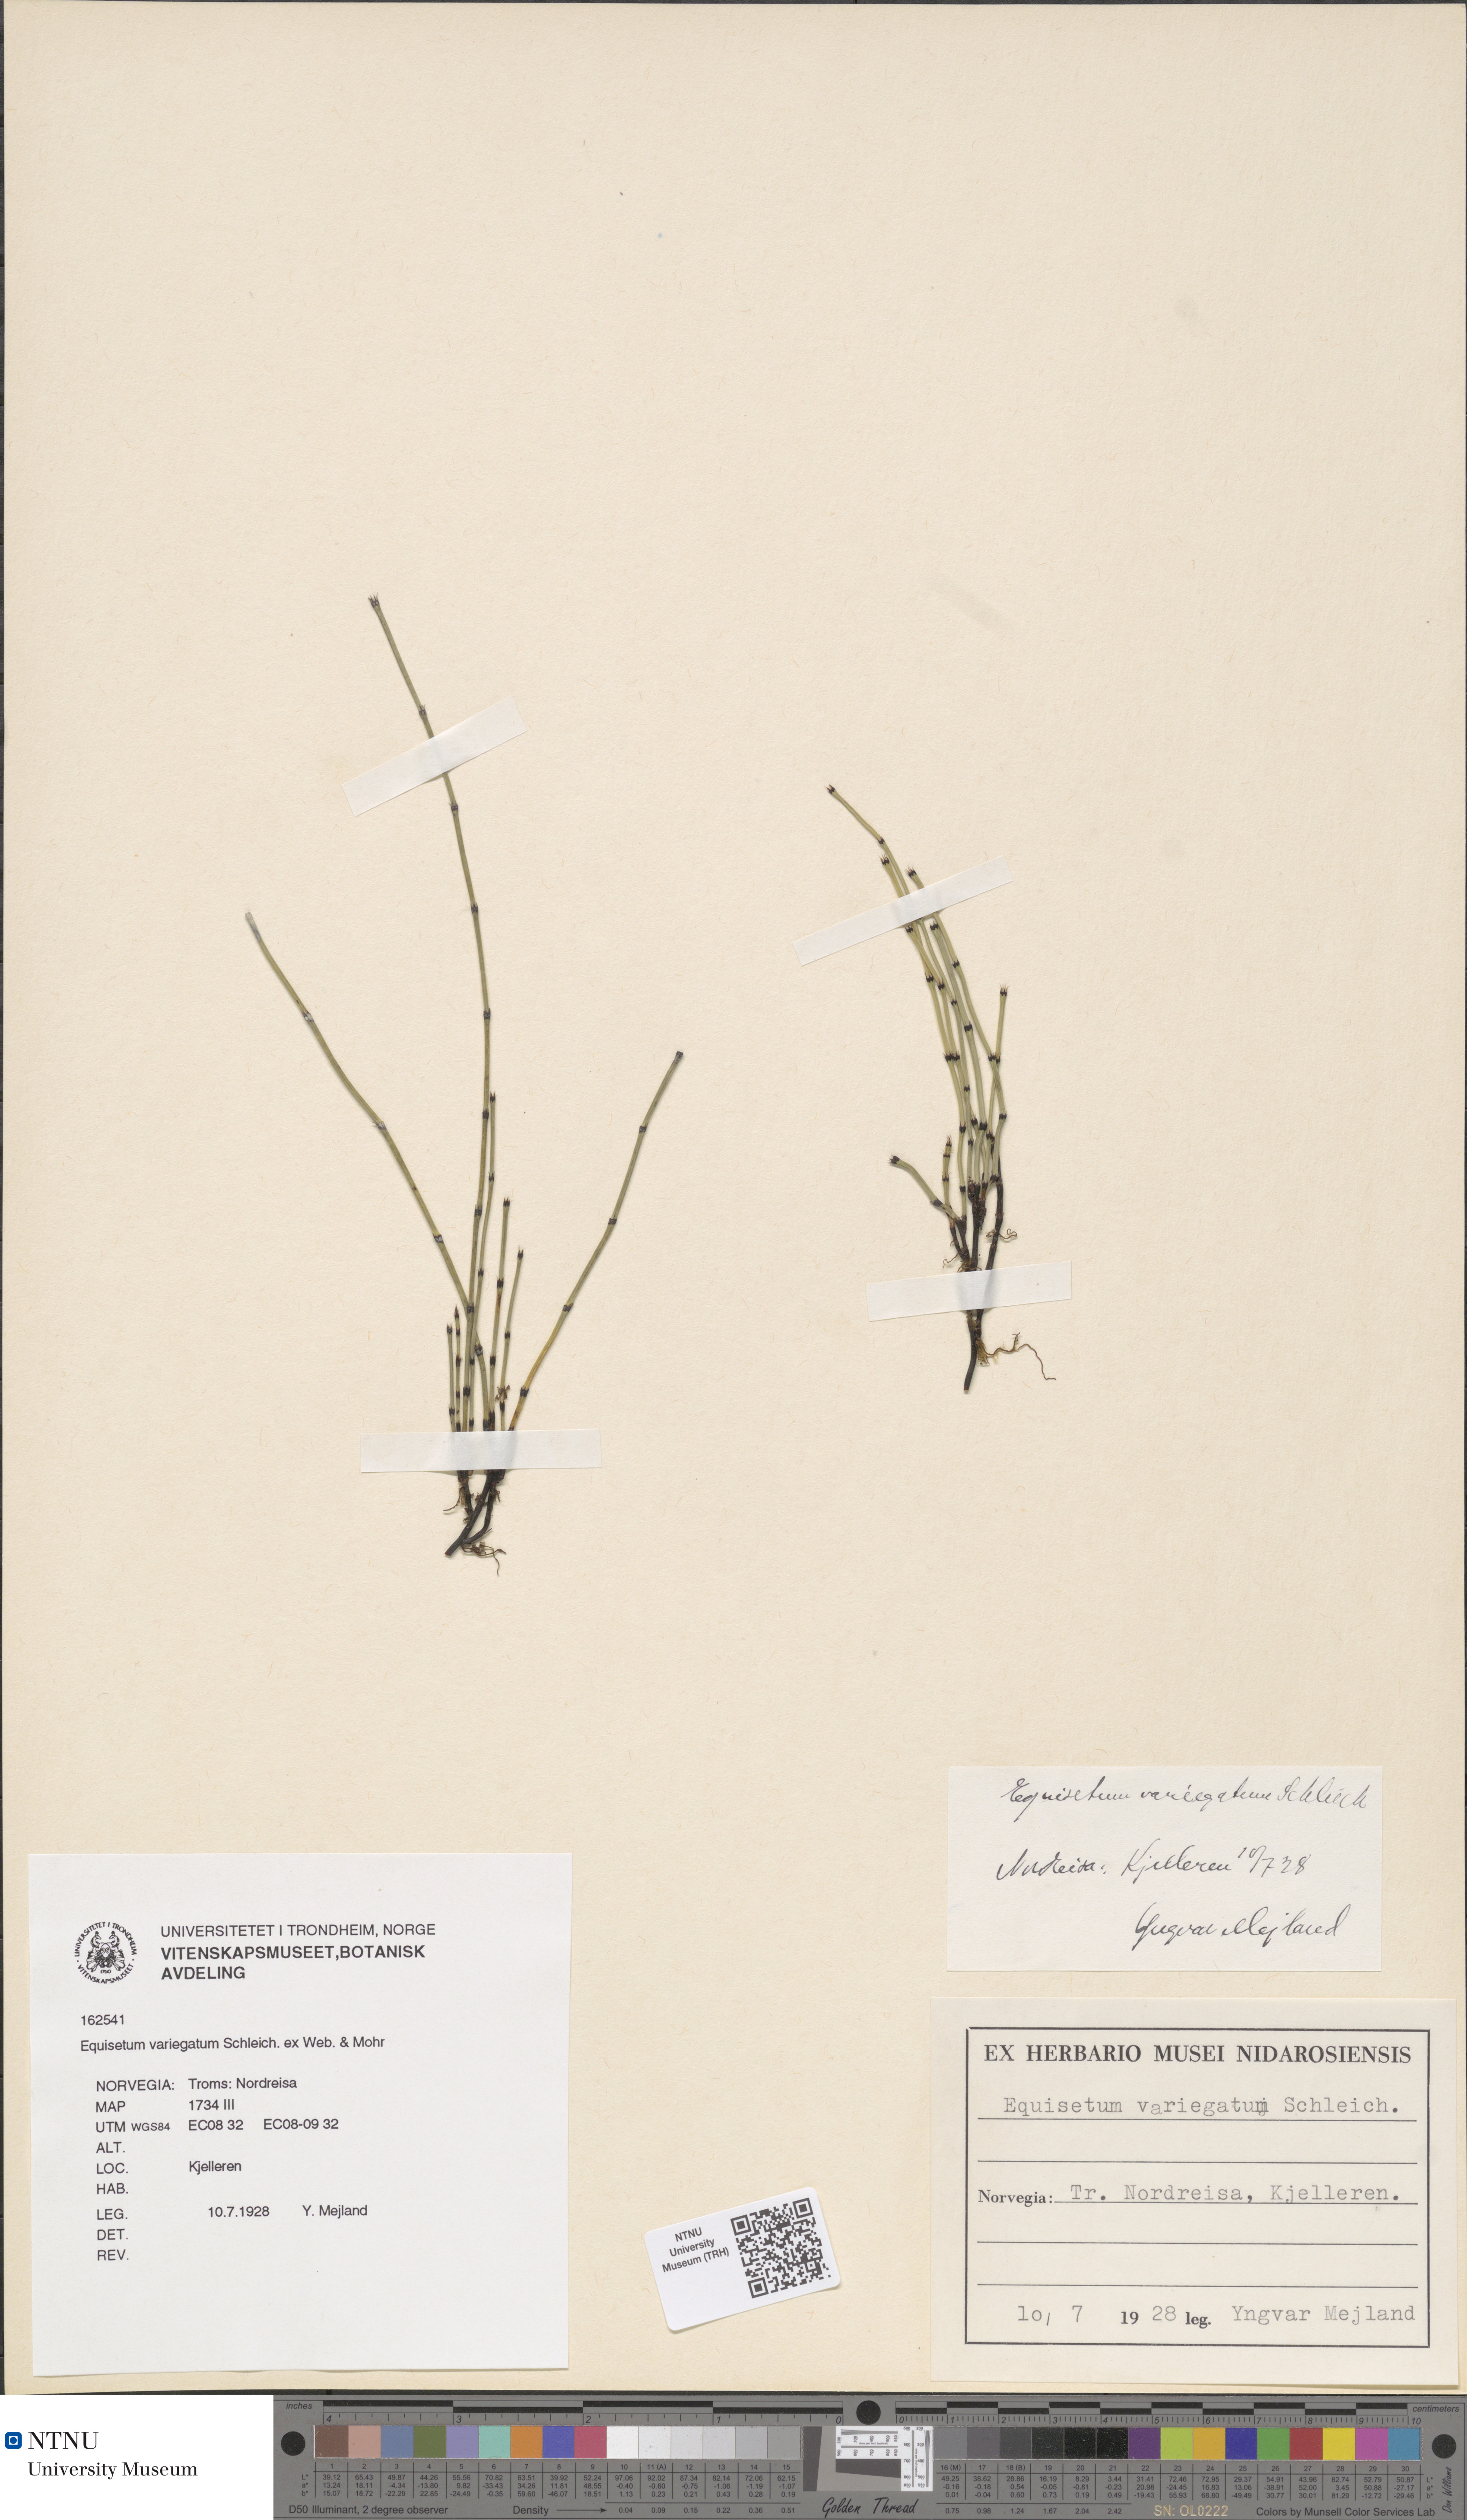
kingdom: Plantae
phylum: Tracheophyta
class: Polypodiopsida
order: Equisetales
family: Equisetaceae
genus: Equisetum
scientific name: Equisetum variegatum
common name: Variegated horsetail
